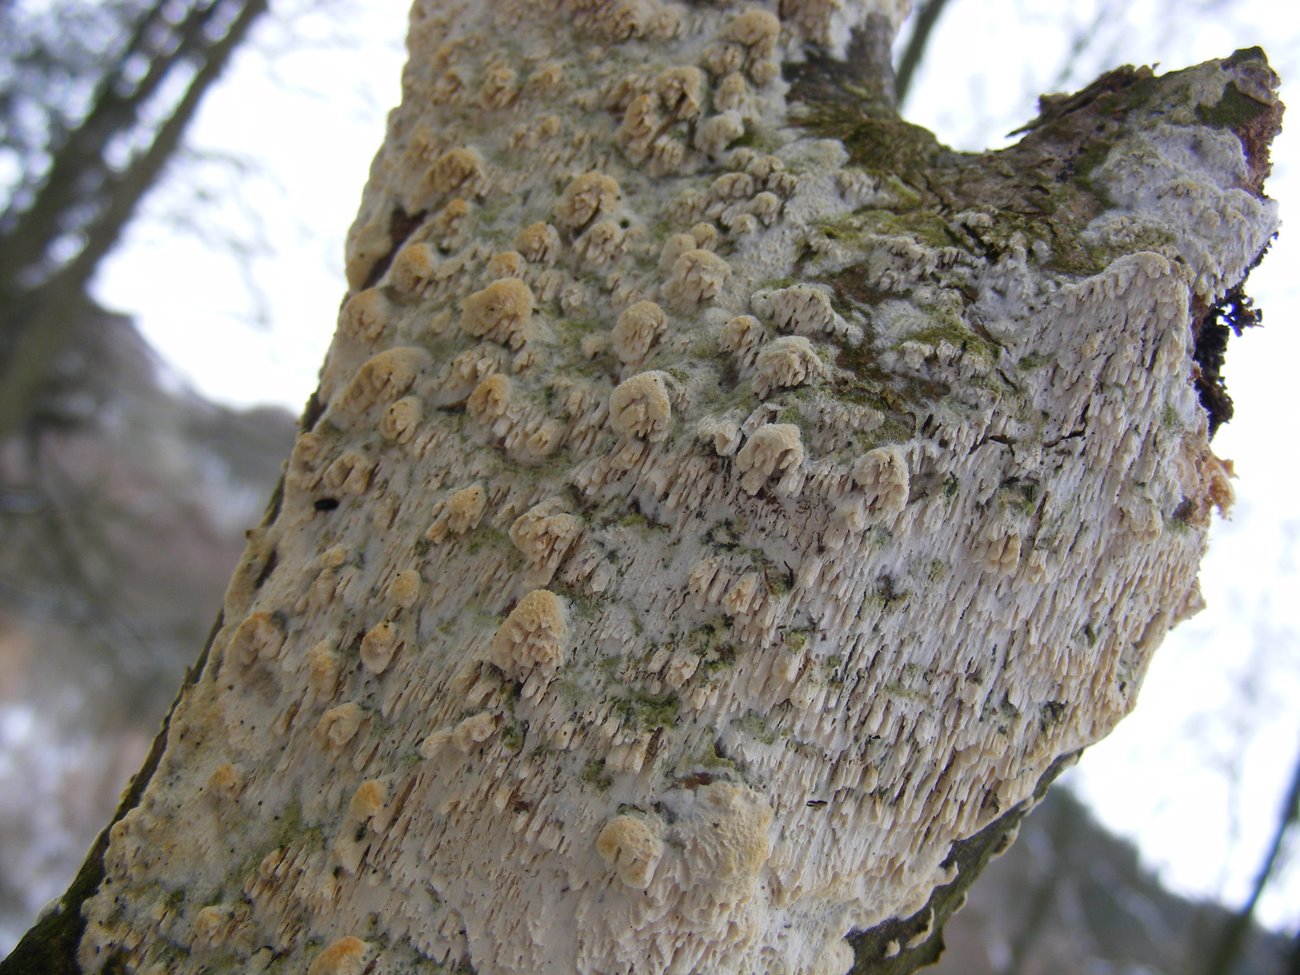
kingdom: Fungi
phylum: Basidiomycota
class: Agaricomycetes
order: Hymenochaetales
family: Schizoporaceae
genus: Schizopora
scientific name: Schizopora paradoxa
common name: hvid tandsvamp
